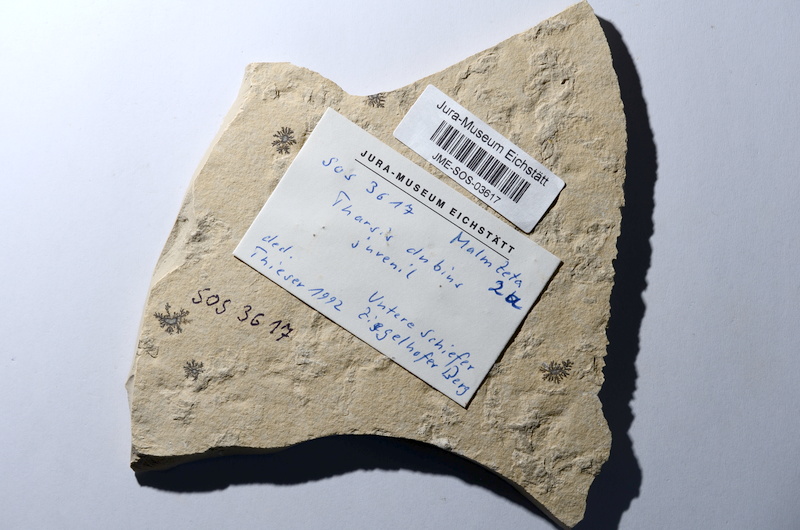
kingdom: Animalia
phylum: Chordata
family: Ascalaboidae
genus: Tharsis
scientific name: Tharsis dubius
